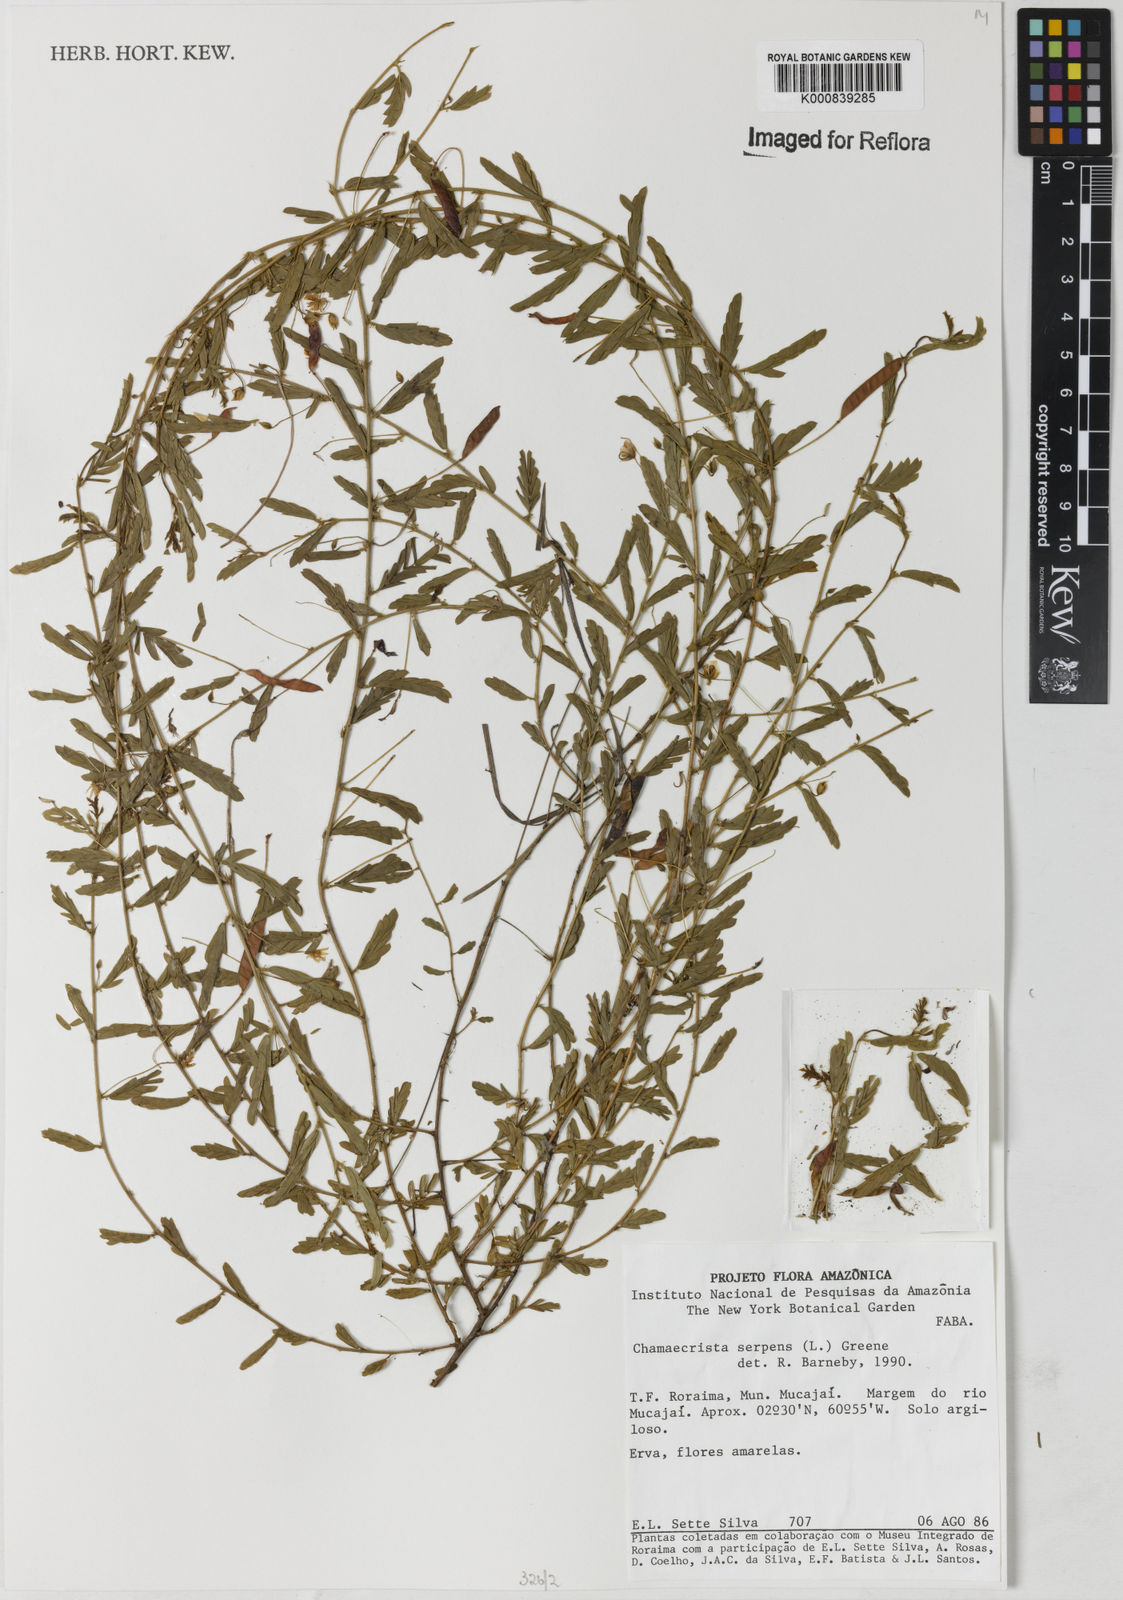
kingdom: Plantae
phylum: Tracheophyta
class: Magnoliopsida
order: Fabales
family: Fabaceae
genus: Chamaecrista
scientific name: Chamaecrista serpens
